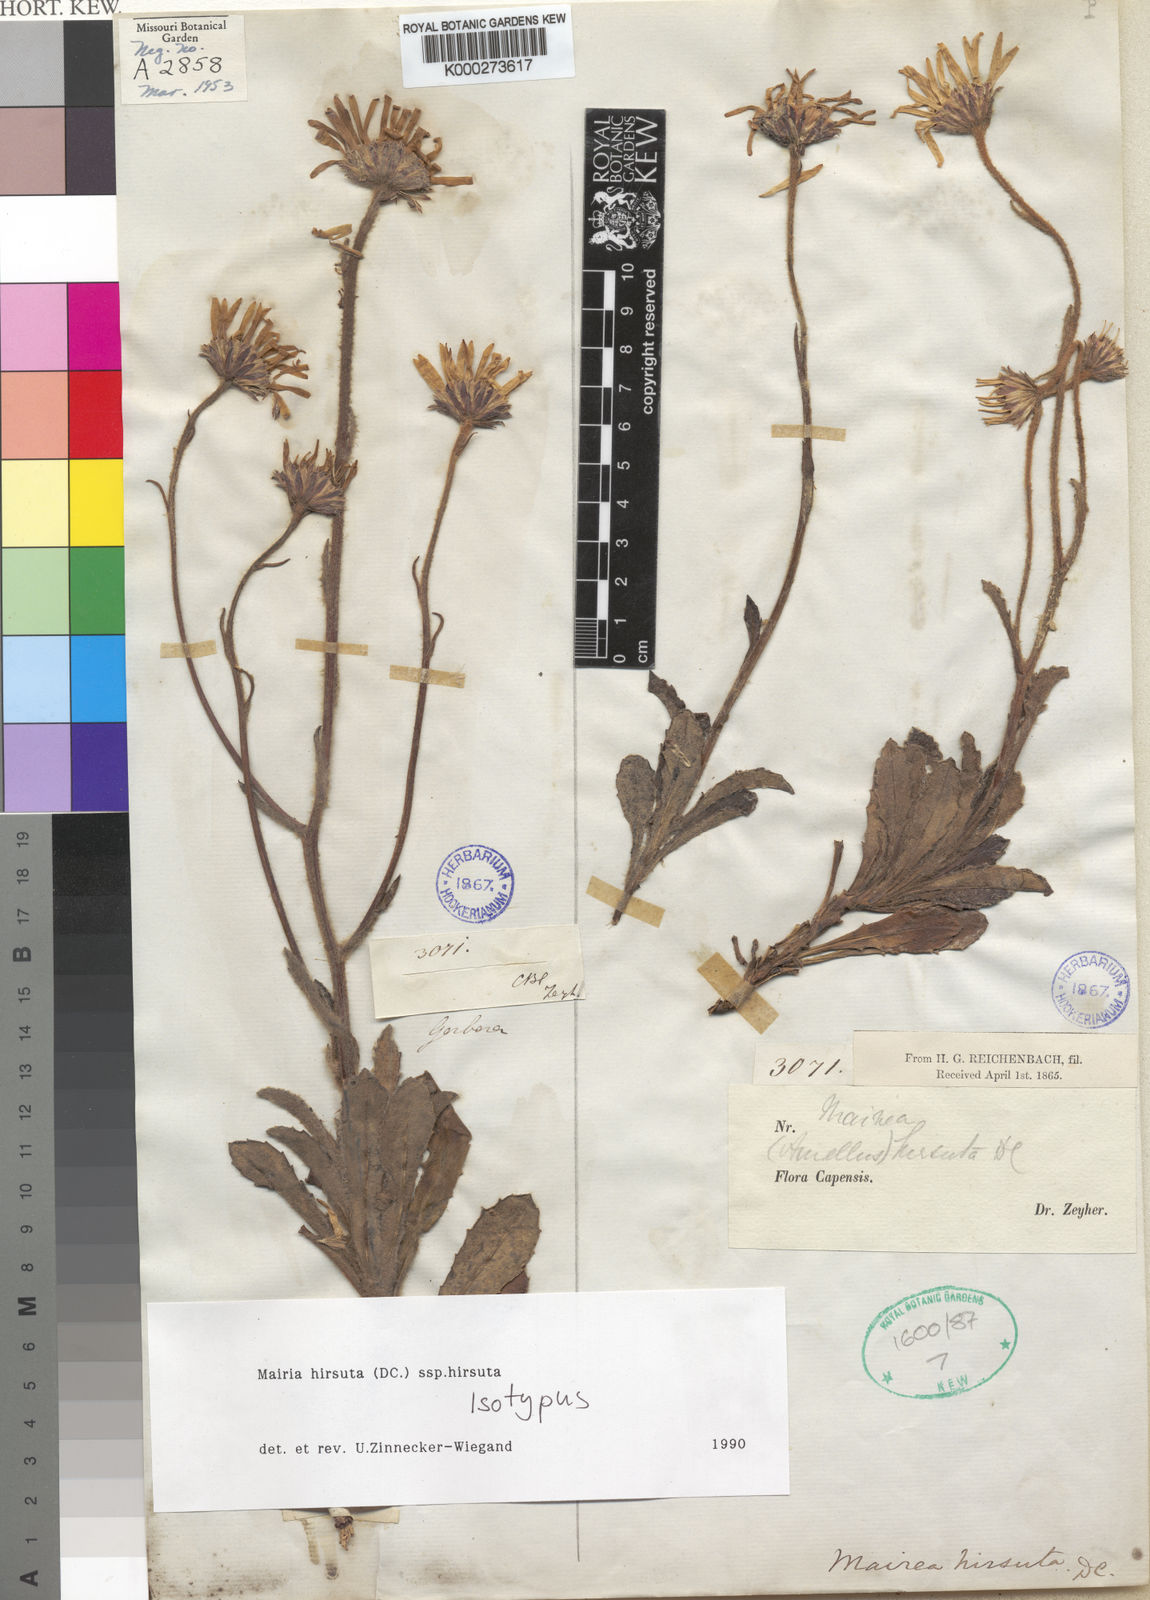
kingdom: Plantae
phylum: Tracheophyta
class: Magnoliopsida
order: Asterales
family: Asteraceae
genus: Mairia
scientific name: Mairia purpurata
